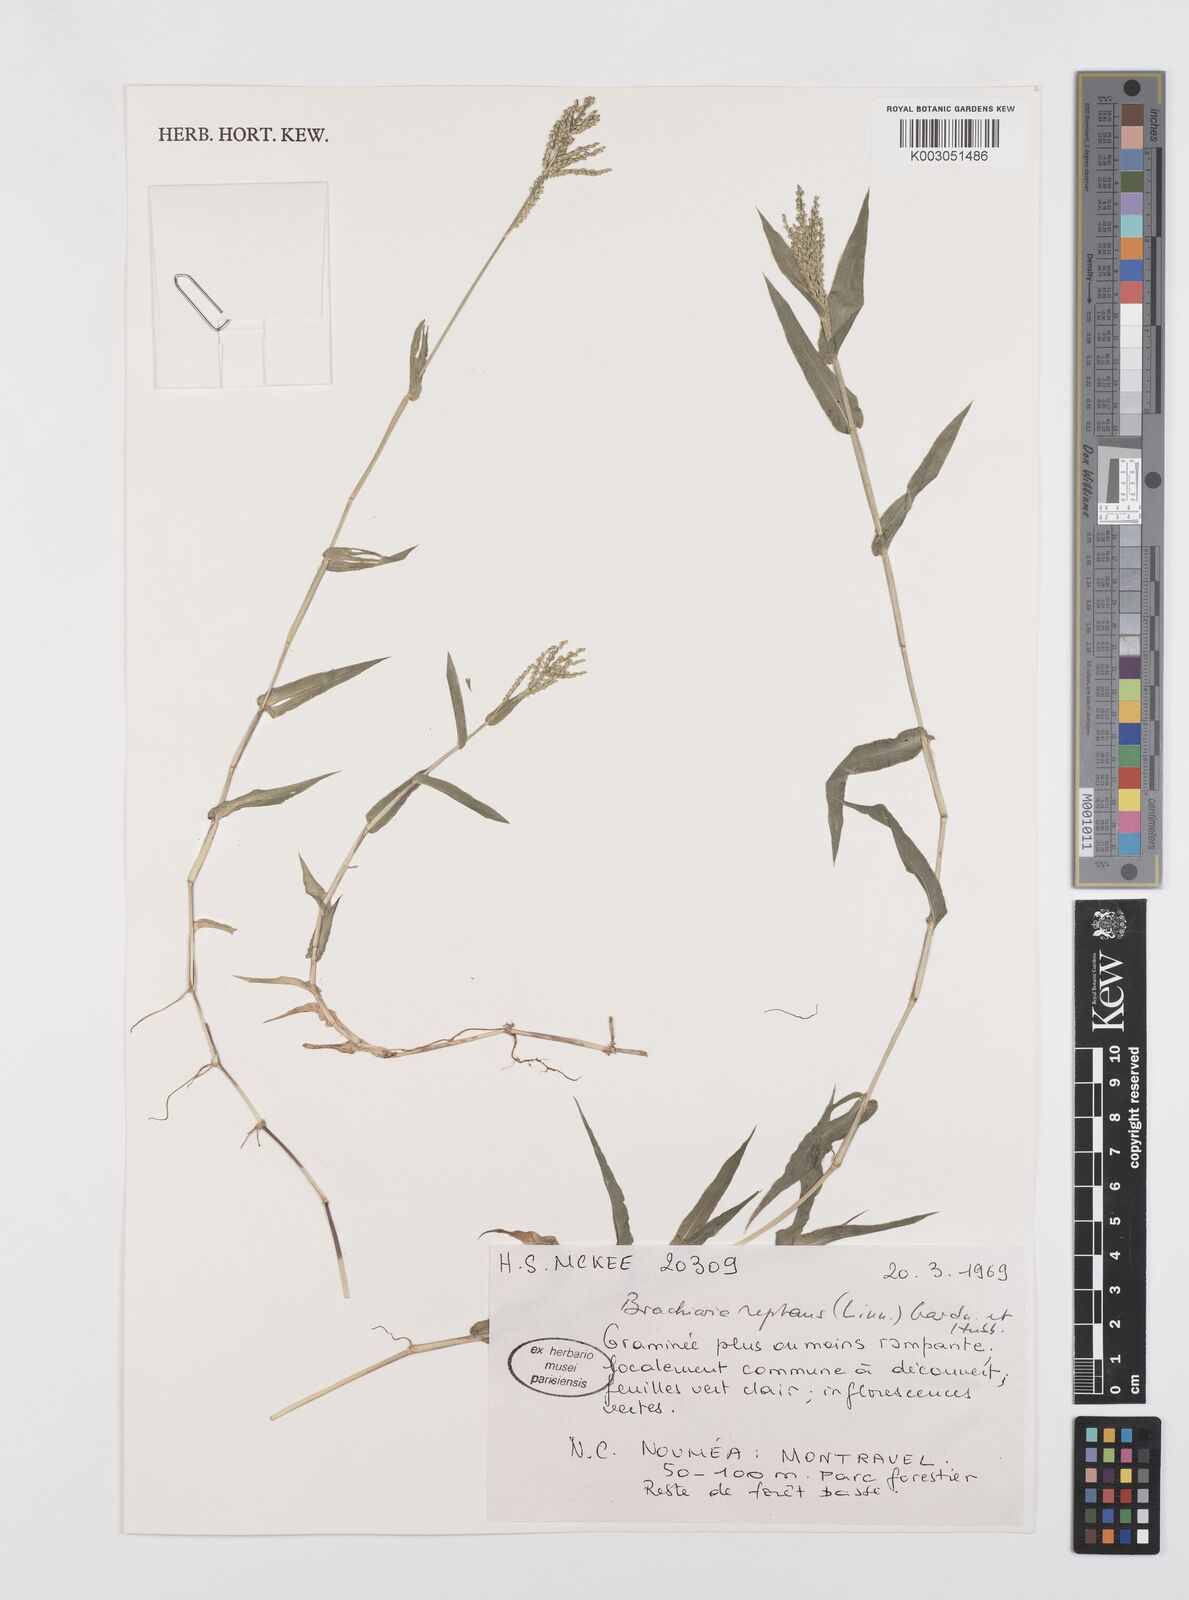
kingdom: Plantae
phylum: Tracheophyta
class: Liliopsida
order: Poales
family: Poaceae
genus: Urochloa
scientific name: Urochloa reptans
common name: Sprawling signalgrass
